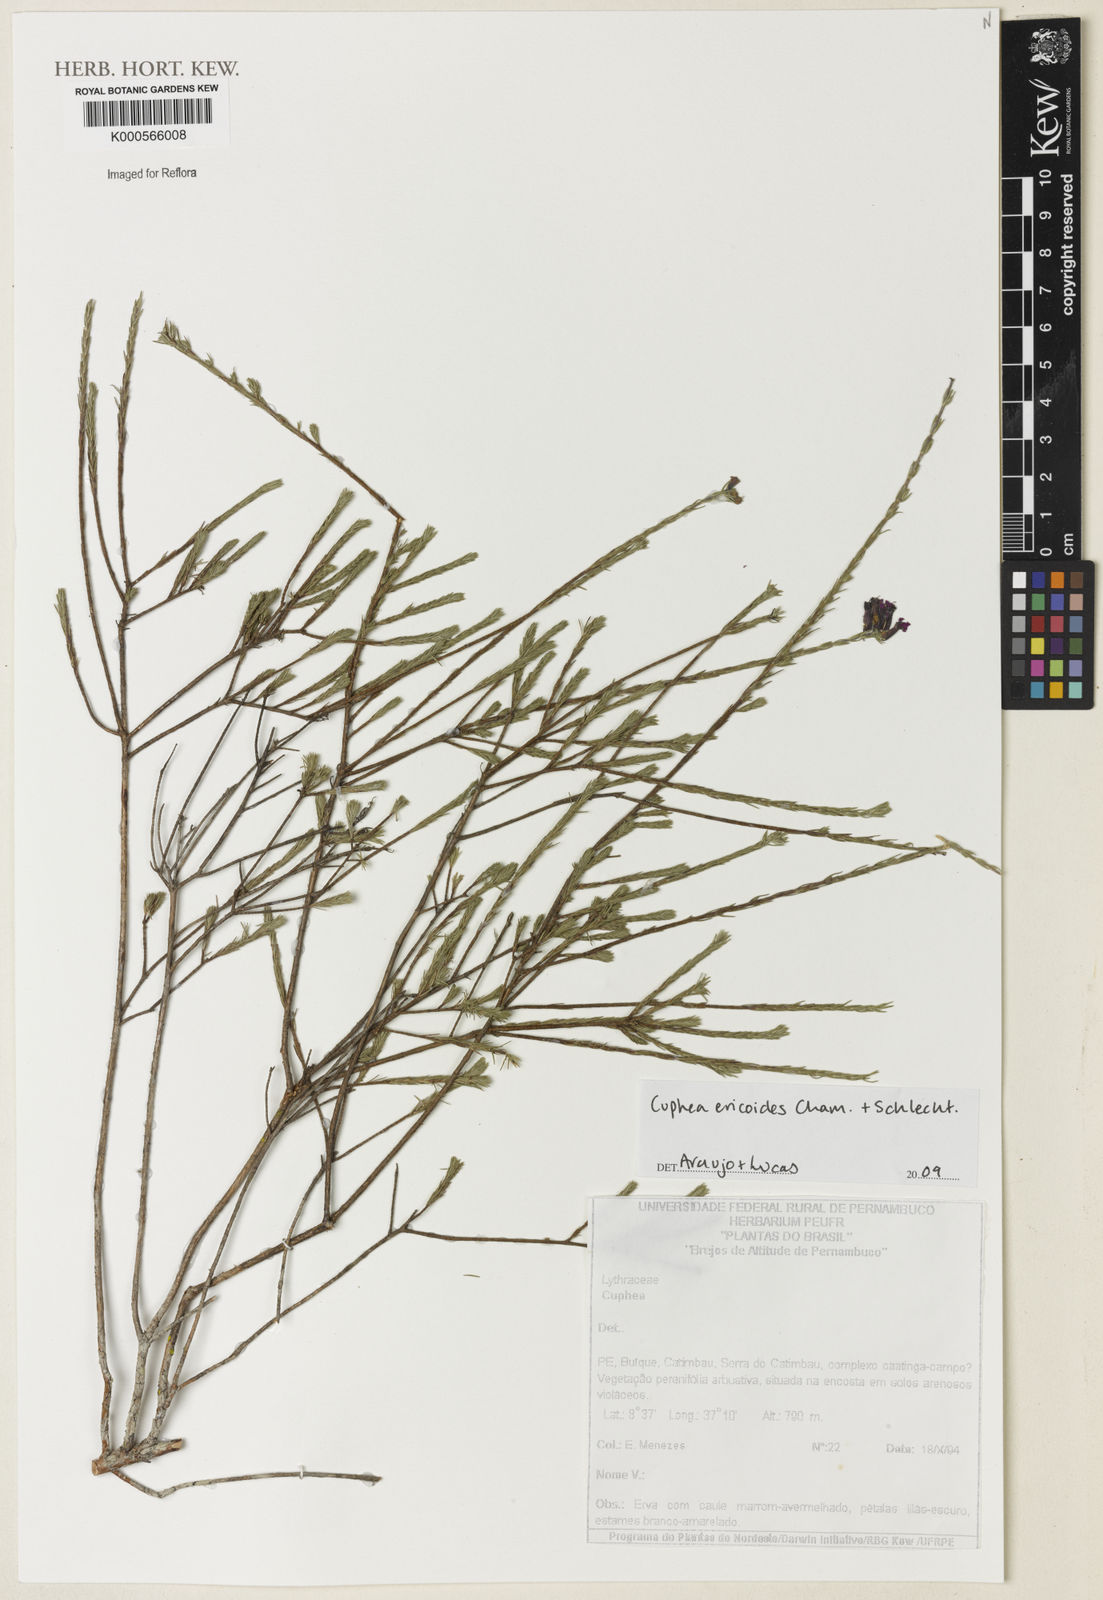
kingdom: Plantae
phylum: Tracheophyta
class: Magnoliopsida
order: Myrtales
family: Lythraceae
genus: Cuphea
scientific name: Cuphea
